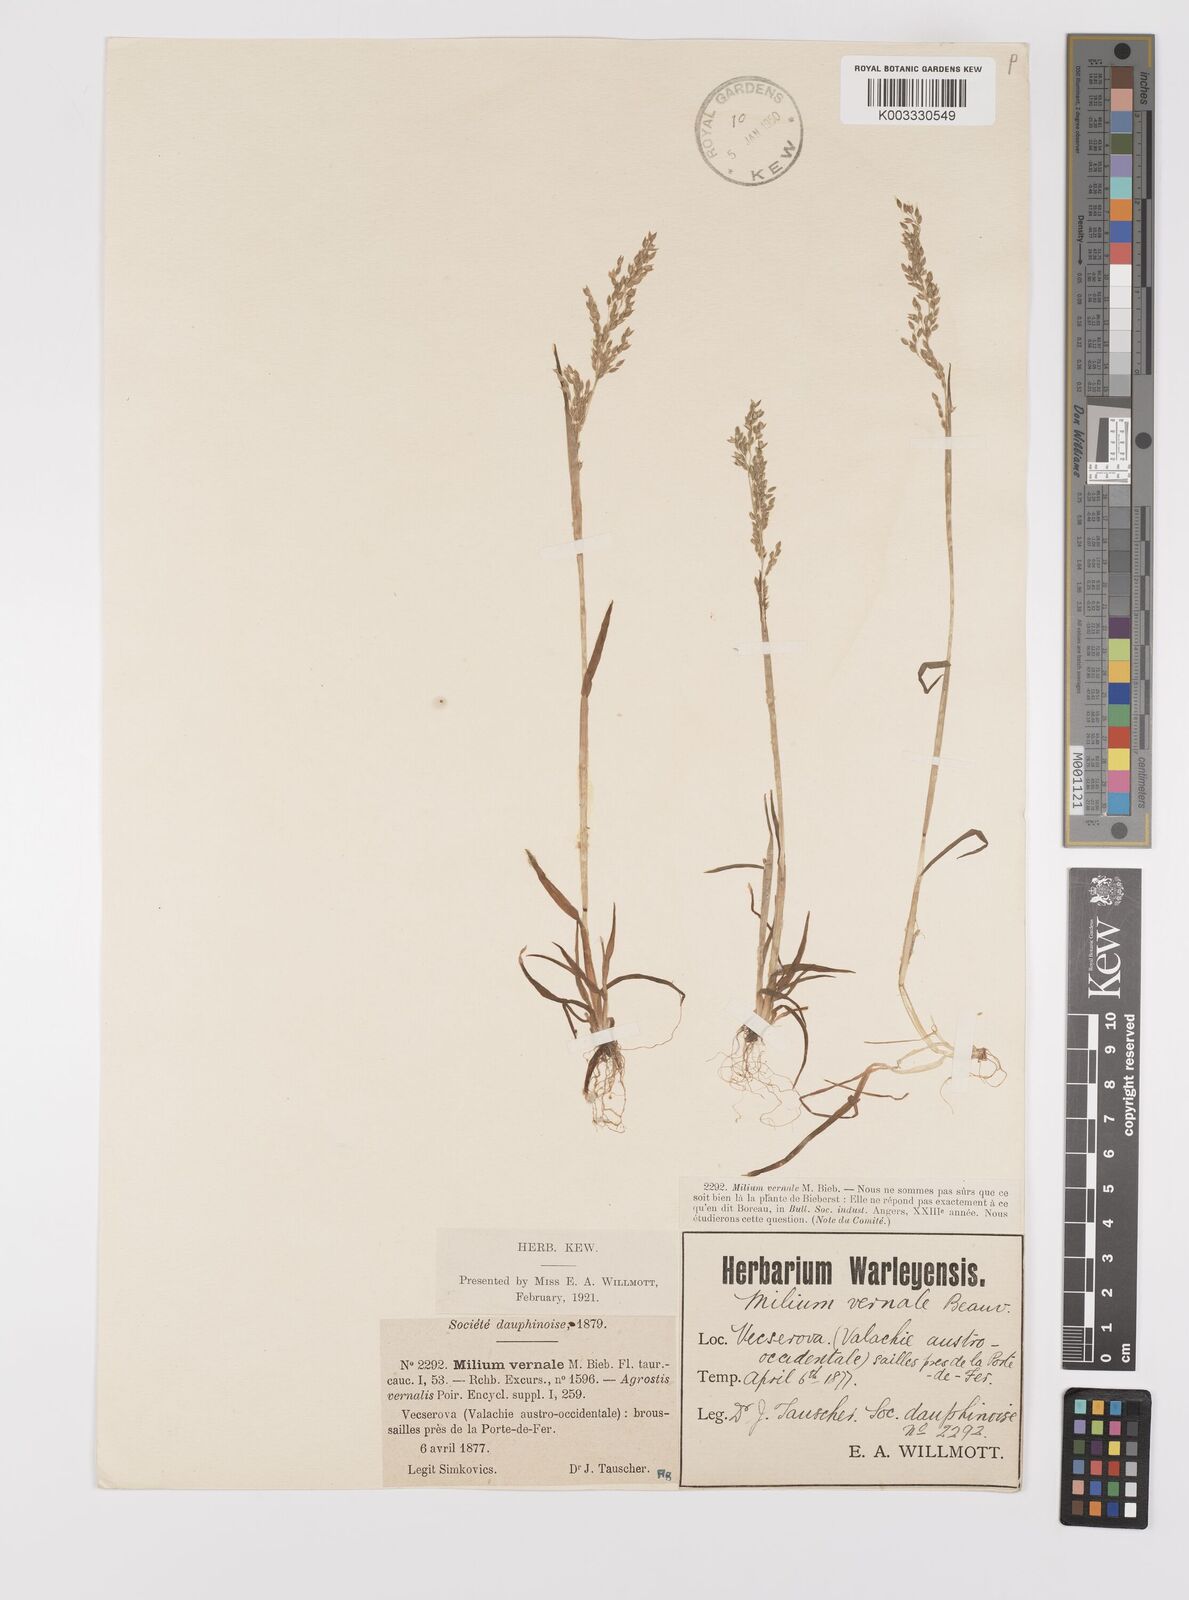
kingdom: Plantae
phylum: Tracheophyta
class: Liliopsida
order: Poales
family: Poaceae
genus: Milium
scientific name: Milium vernale
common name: Early millet
